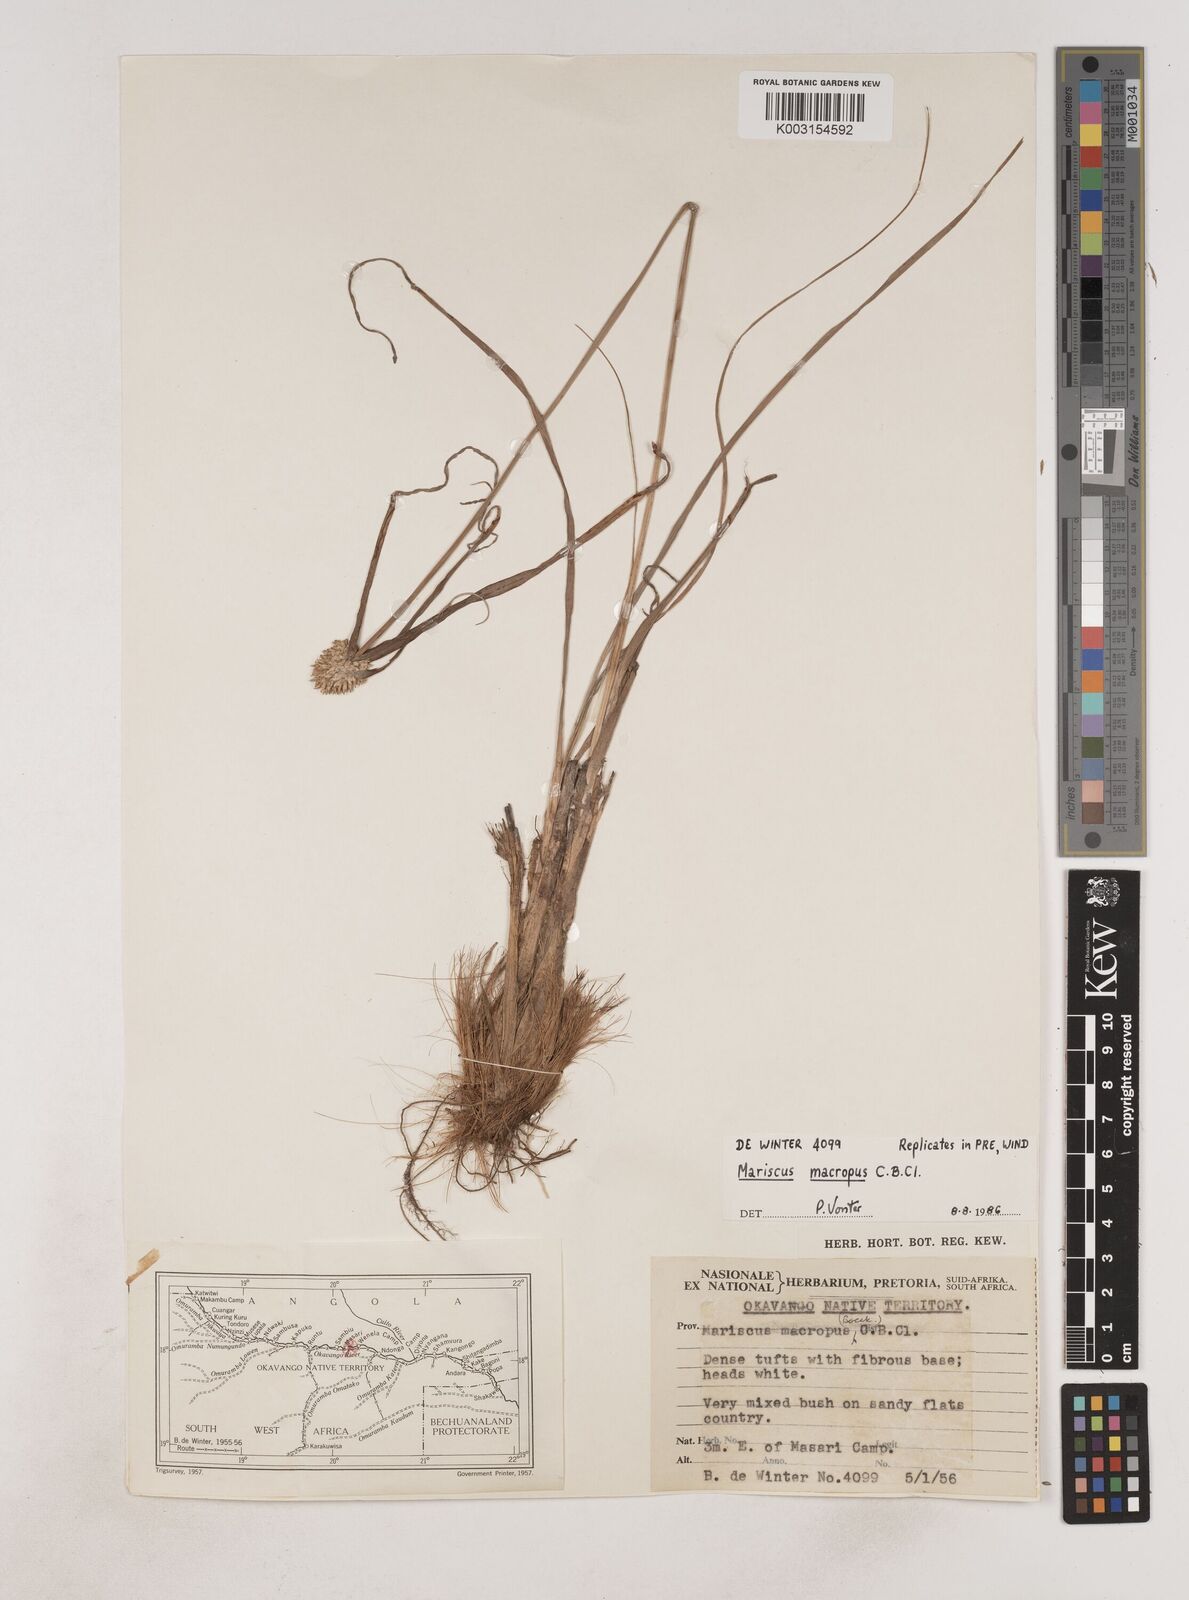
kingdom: Plantae
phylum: Tracheophyta
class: Liliopsida
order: Poales
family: Cyperaceae
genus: Cyperus
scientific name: Cyperus mollipes
